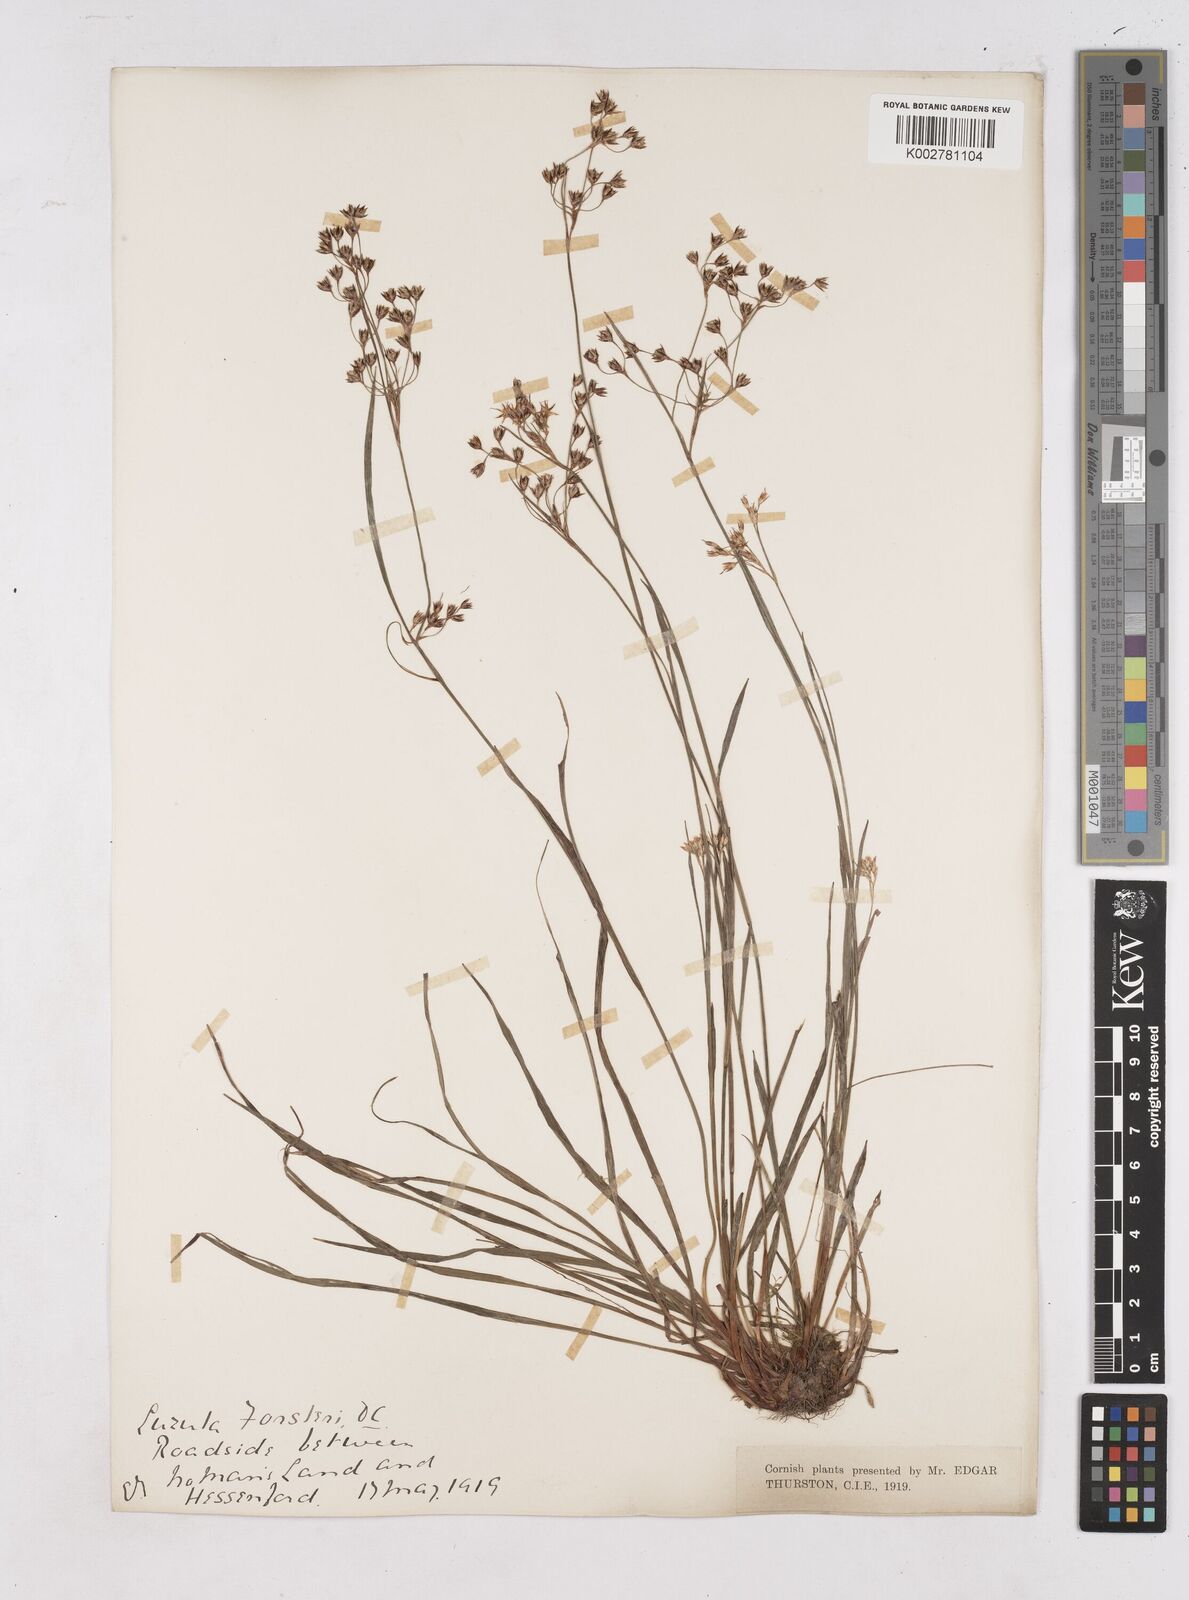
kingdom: Plantae
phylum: Tracheophyta
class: Liliopsida
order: Poales
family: Juncaceae
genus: Luzula
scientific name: Luzula forsteri
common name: Southern wood-rush
